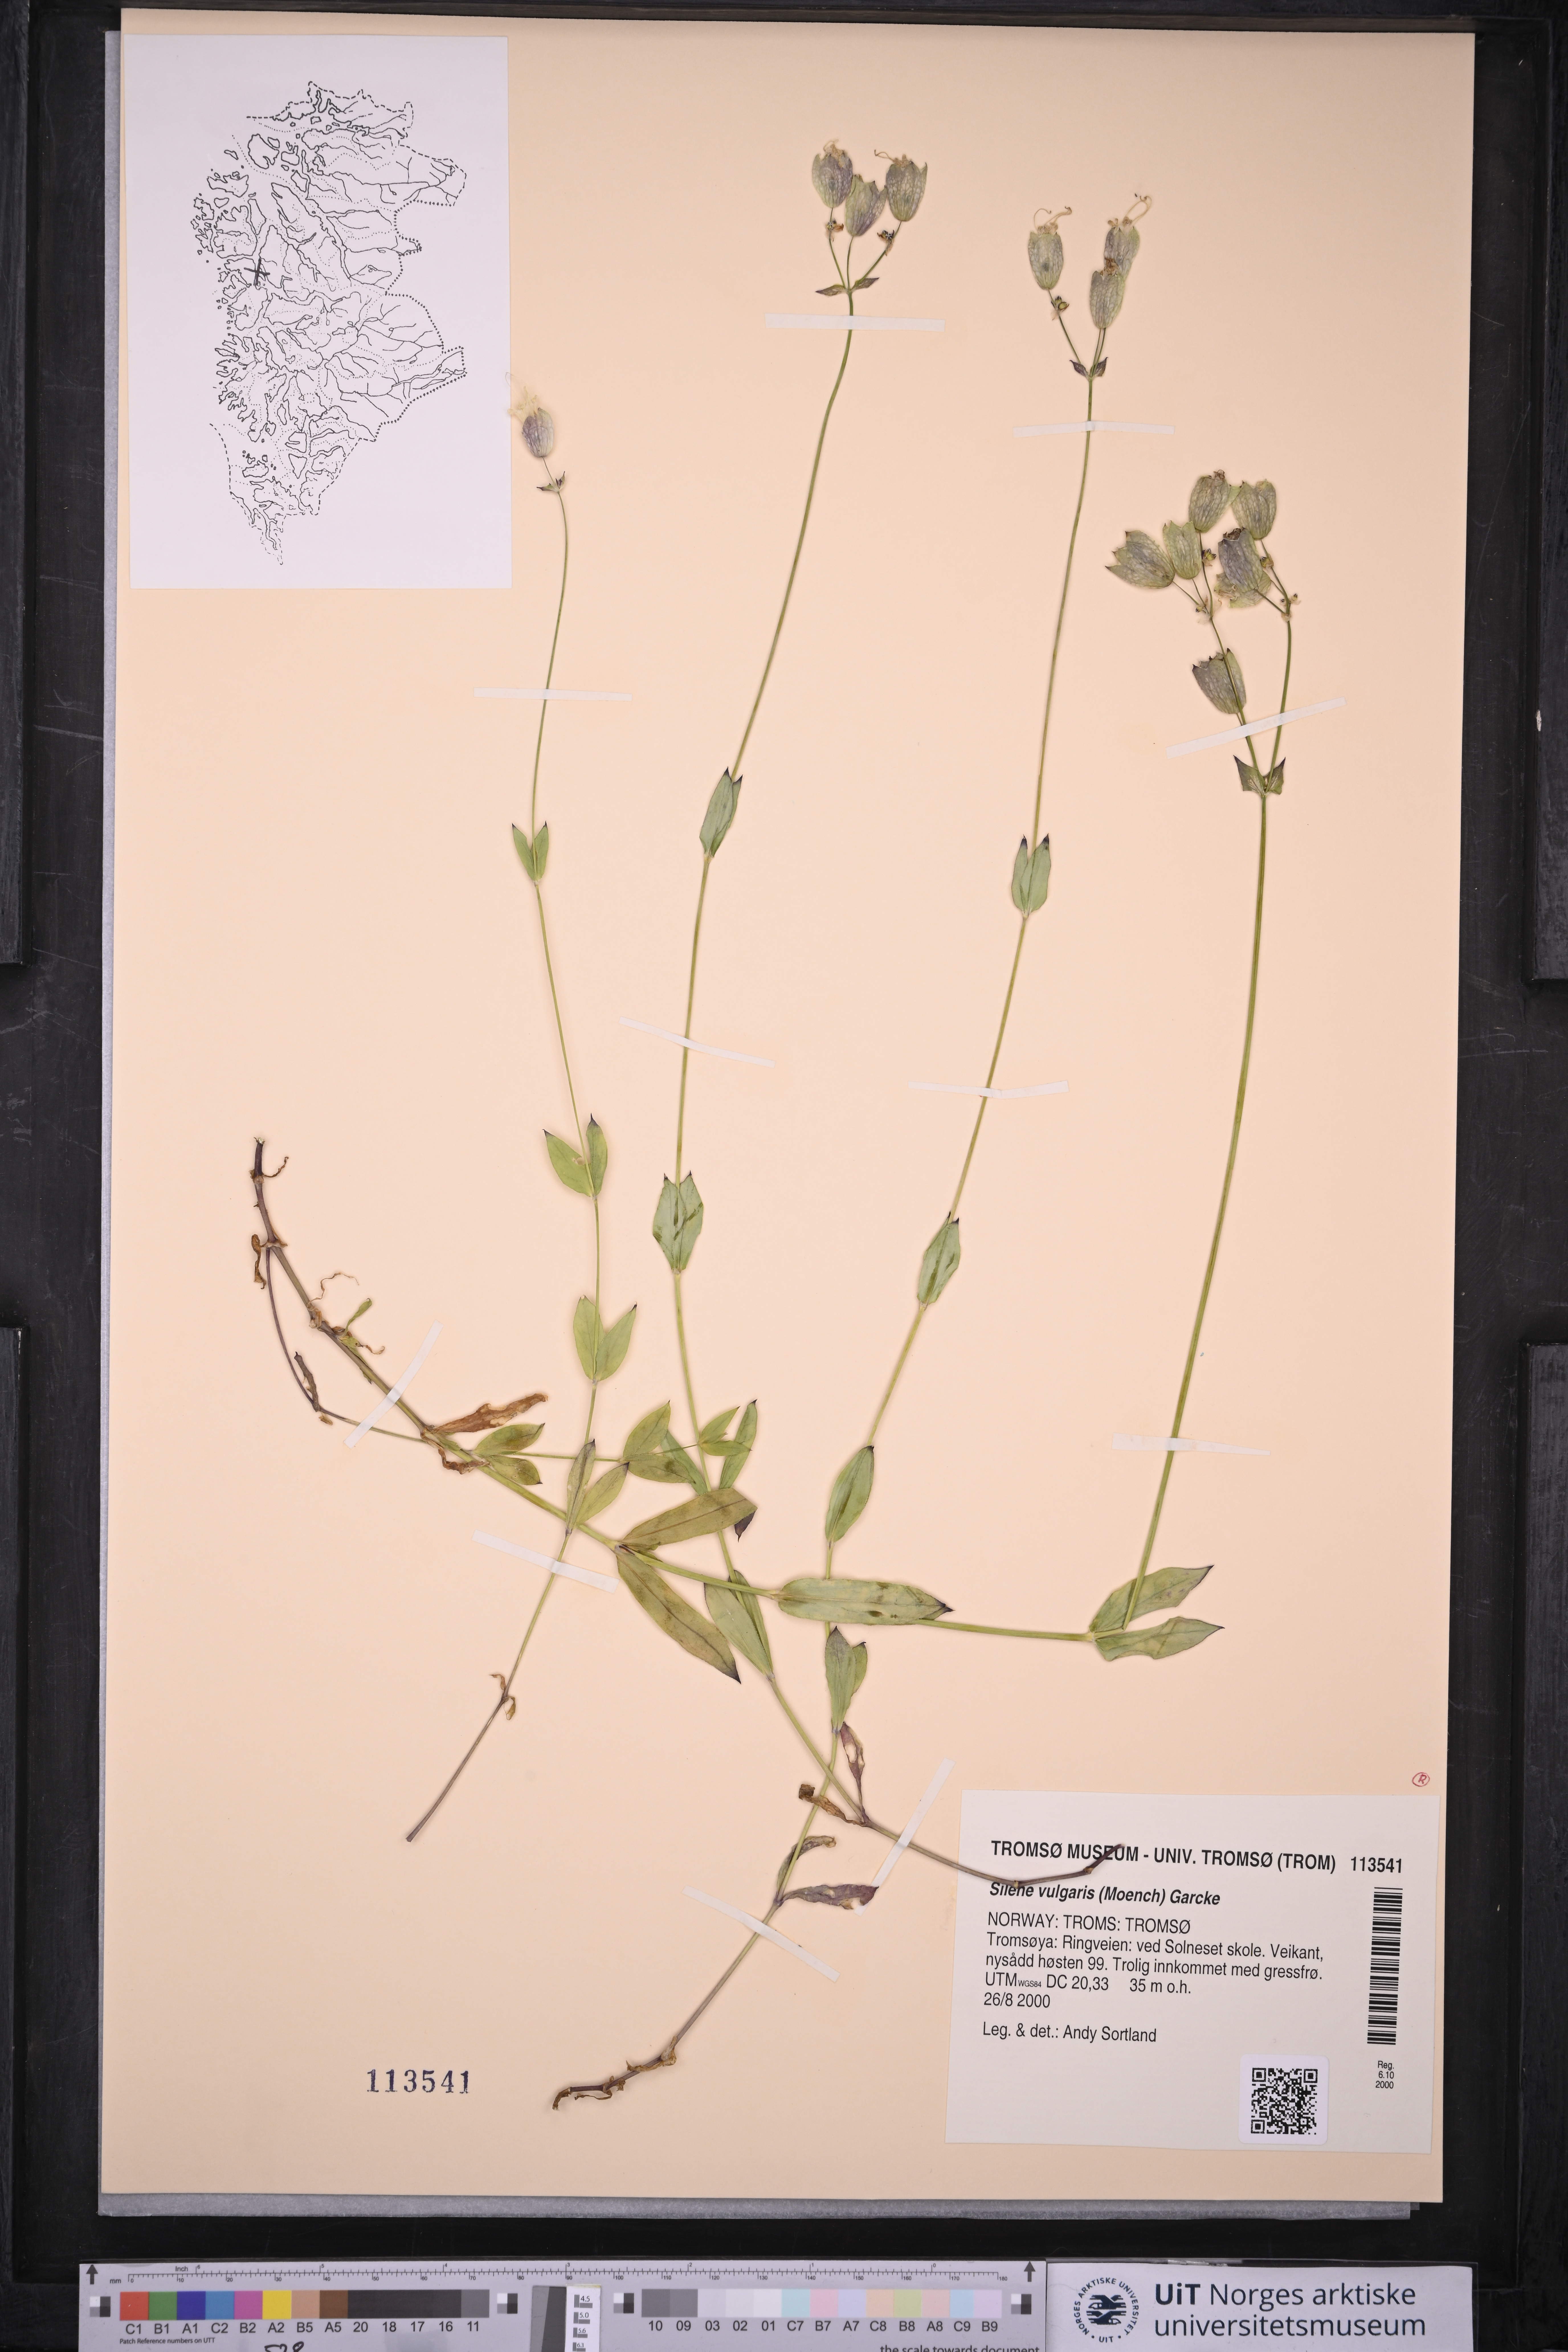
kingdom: Plantae
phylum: Tracheophyta
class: Magnoliopsida
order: Caryophyllales
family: Caryophyllaceae
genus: Silene
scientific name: Silene vulgaris
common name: Bladder campion
